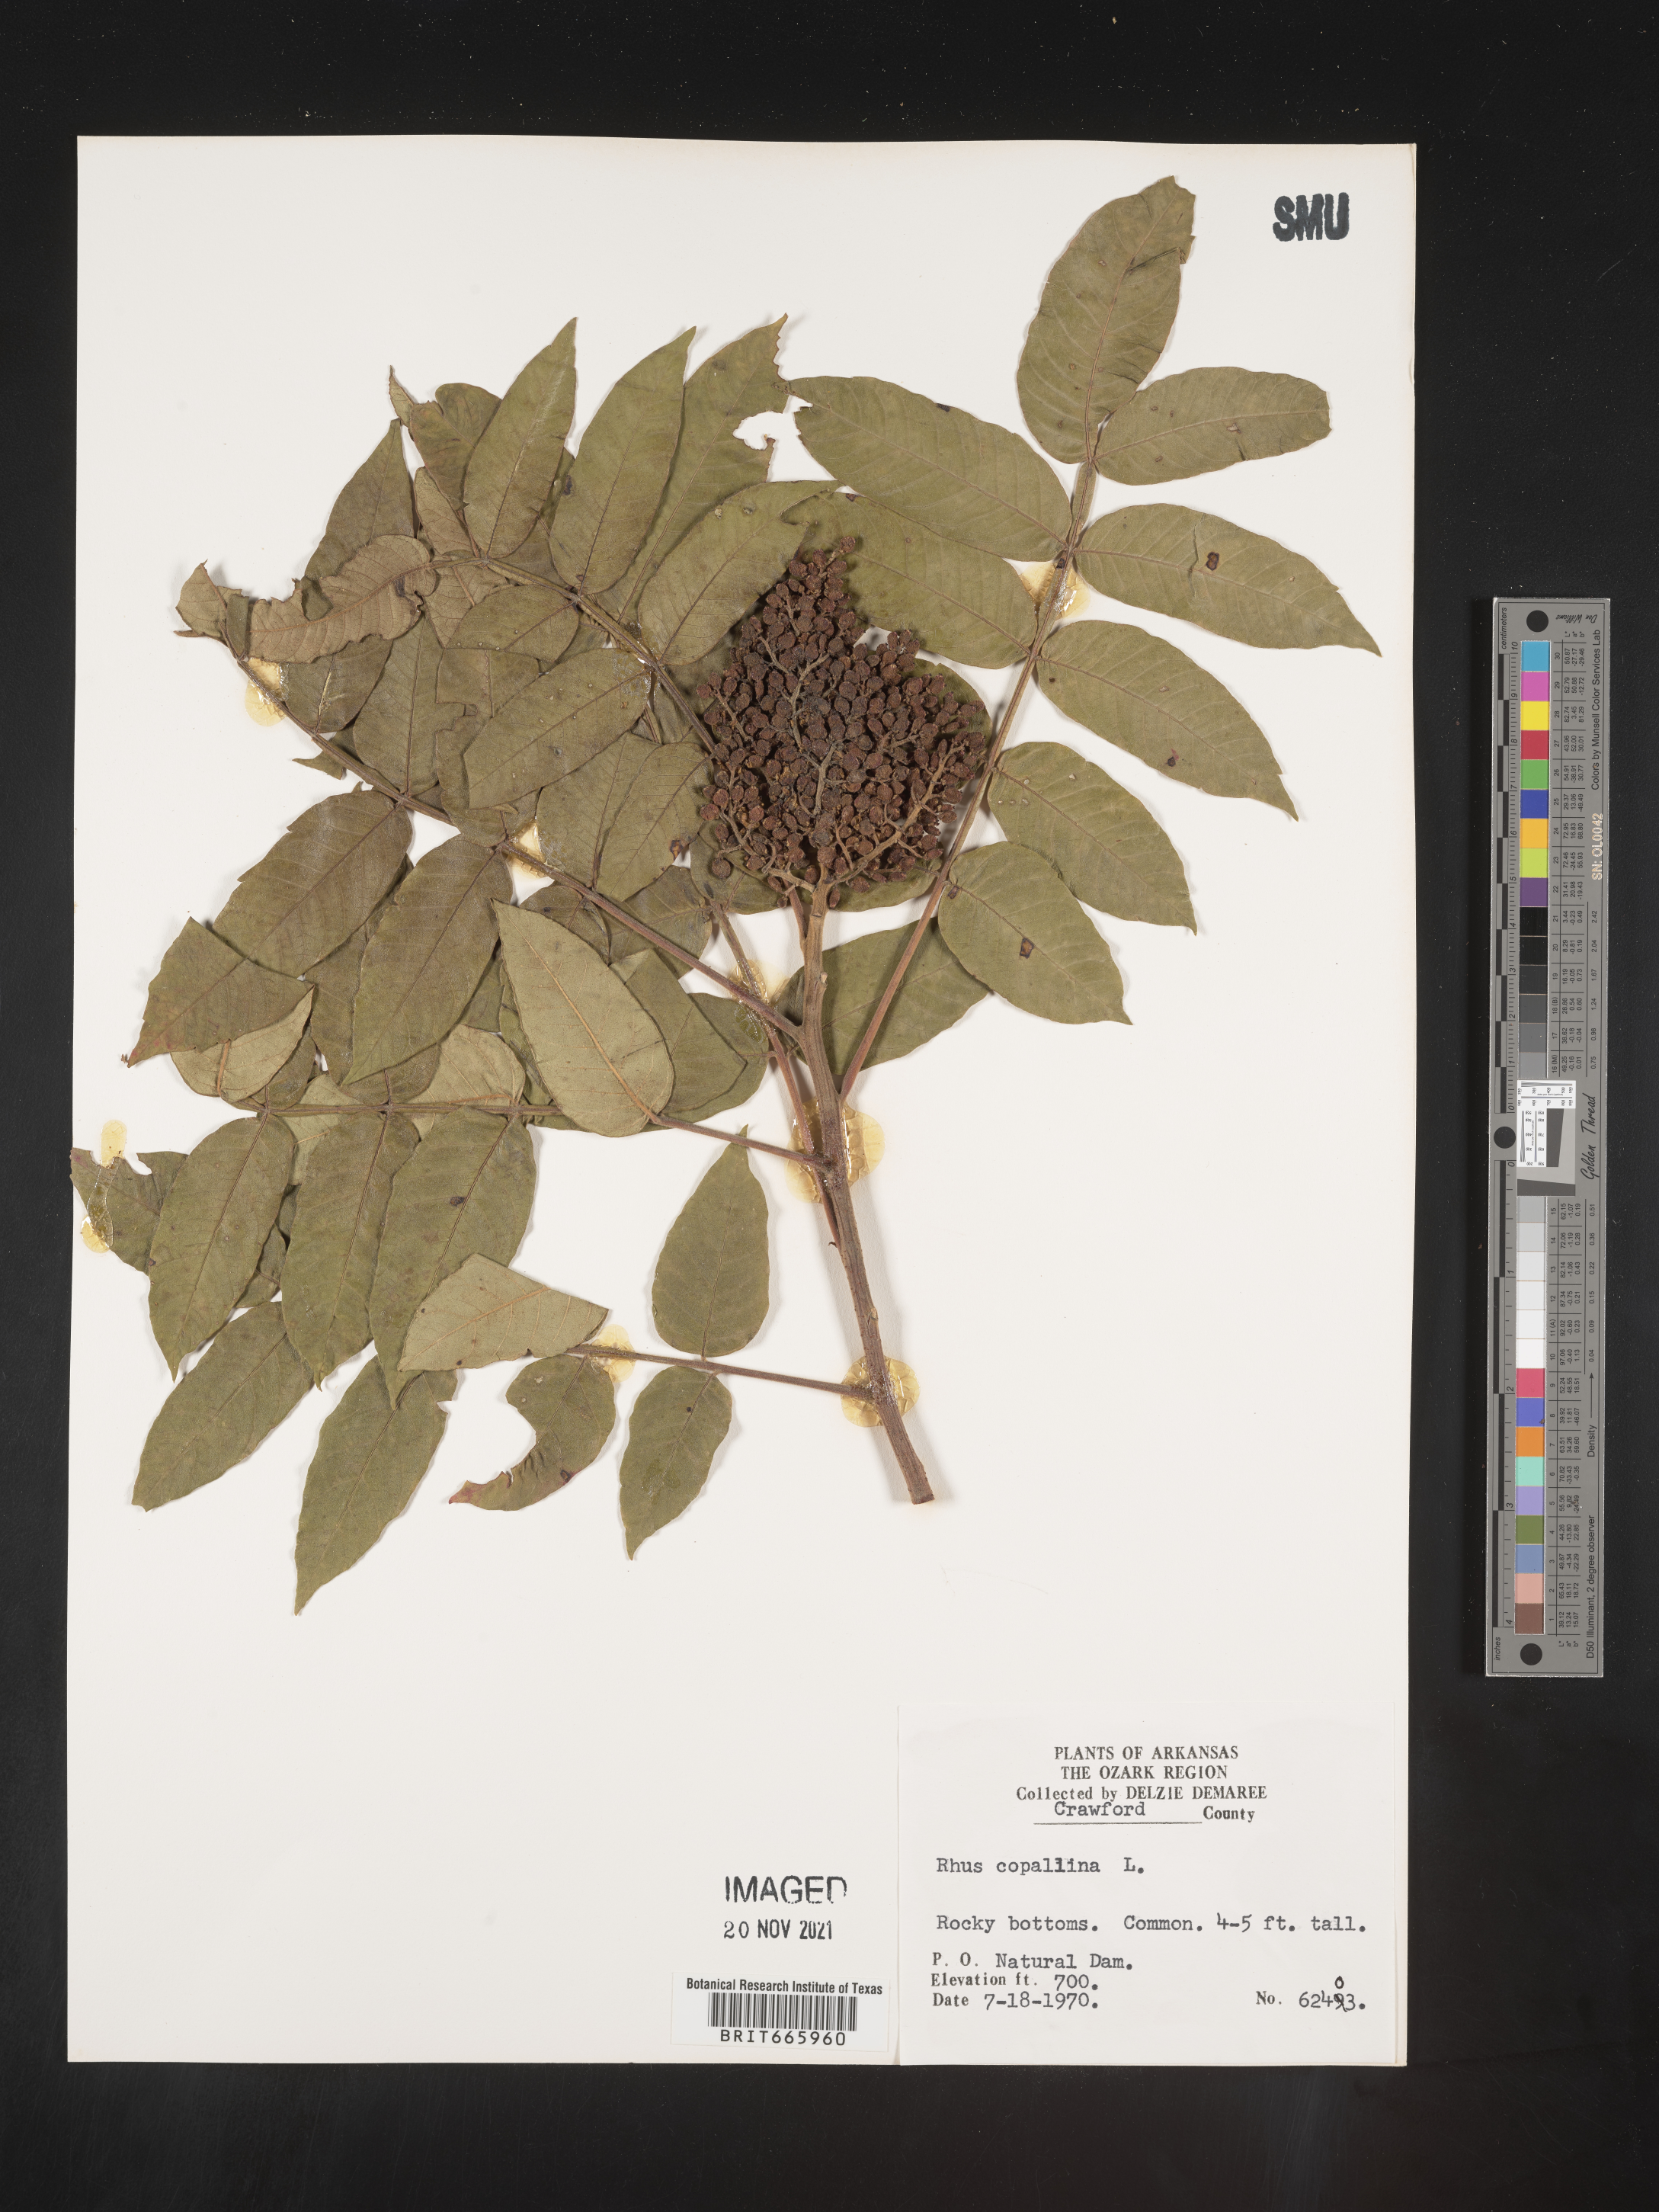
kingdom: Plantae
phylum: Tracheophyta
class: Magnoliopsida
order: Sapindales
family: Anacardiaceae
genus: Rhus
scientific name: Rhus copallina
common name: Shining sumac
